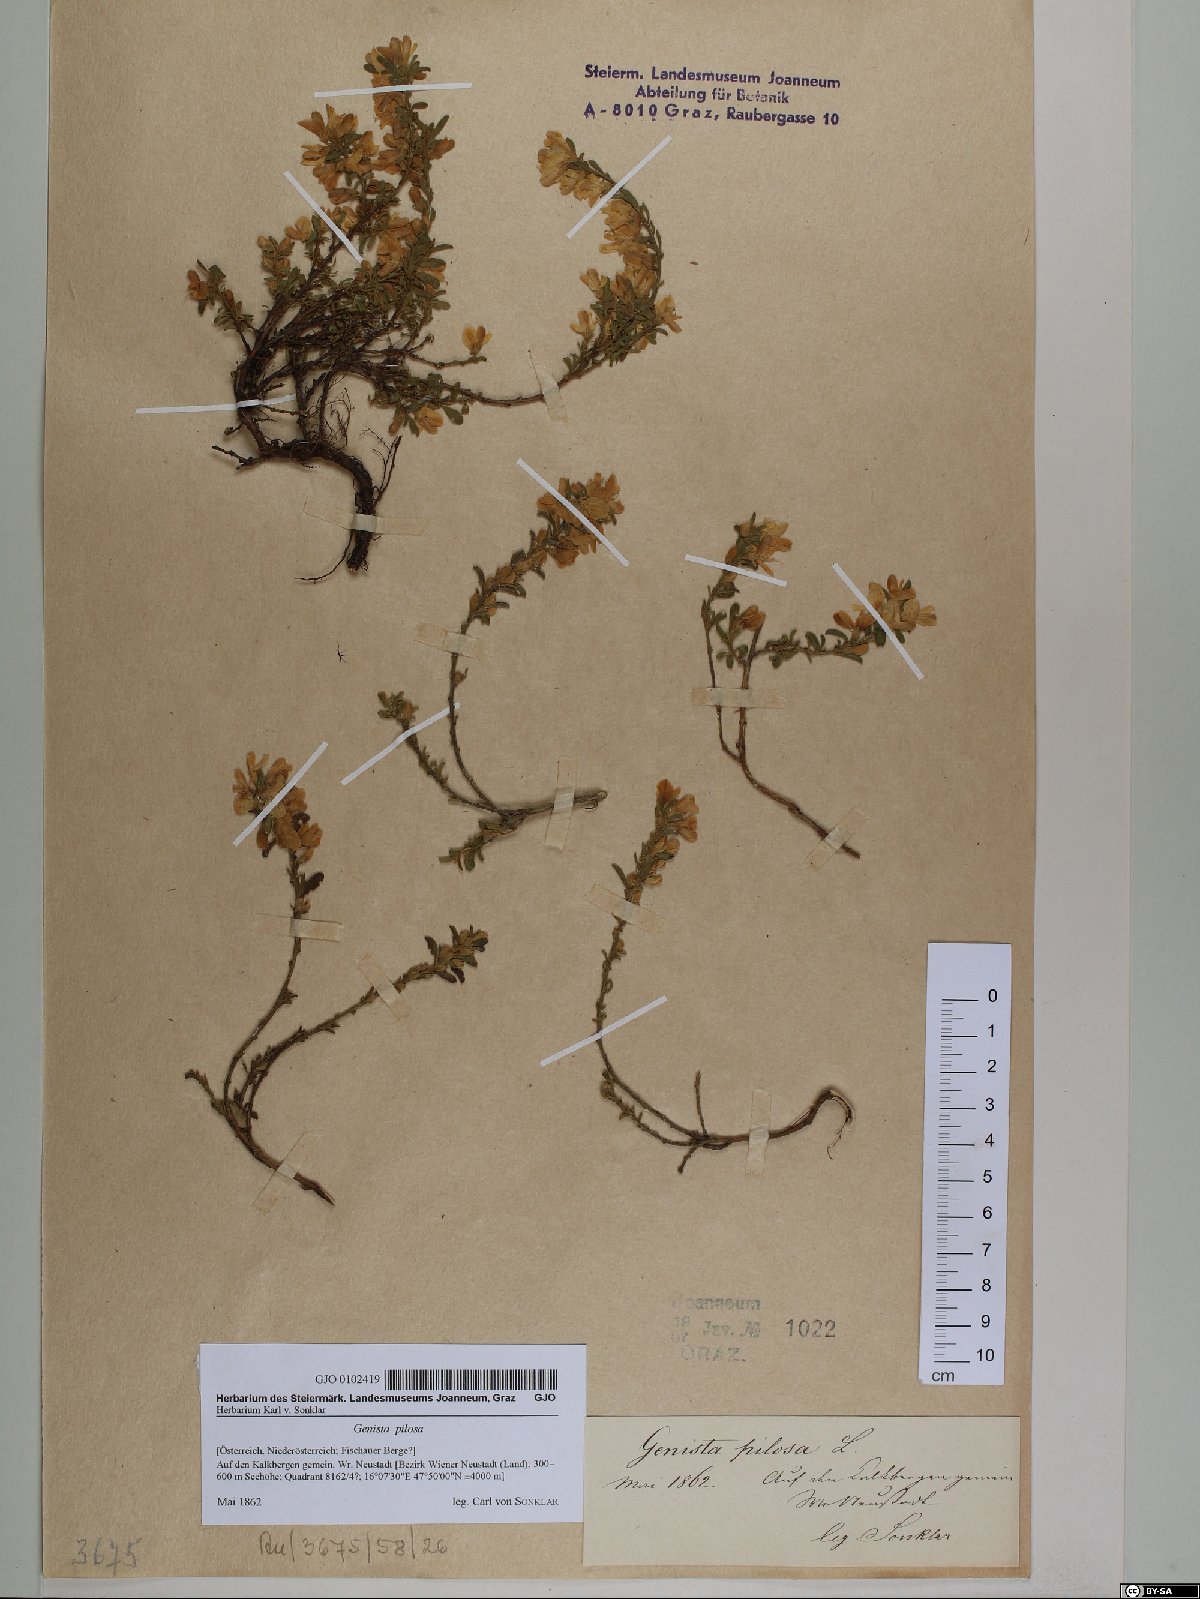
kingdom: Plantae
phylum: Tracheophyta
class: Magnoliopsida
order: Fabales
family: Fabaceae
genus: Genista
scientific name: Genista pilosa
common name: Hairy greenweed
